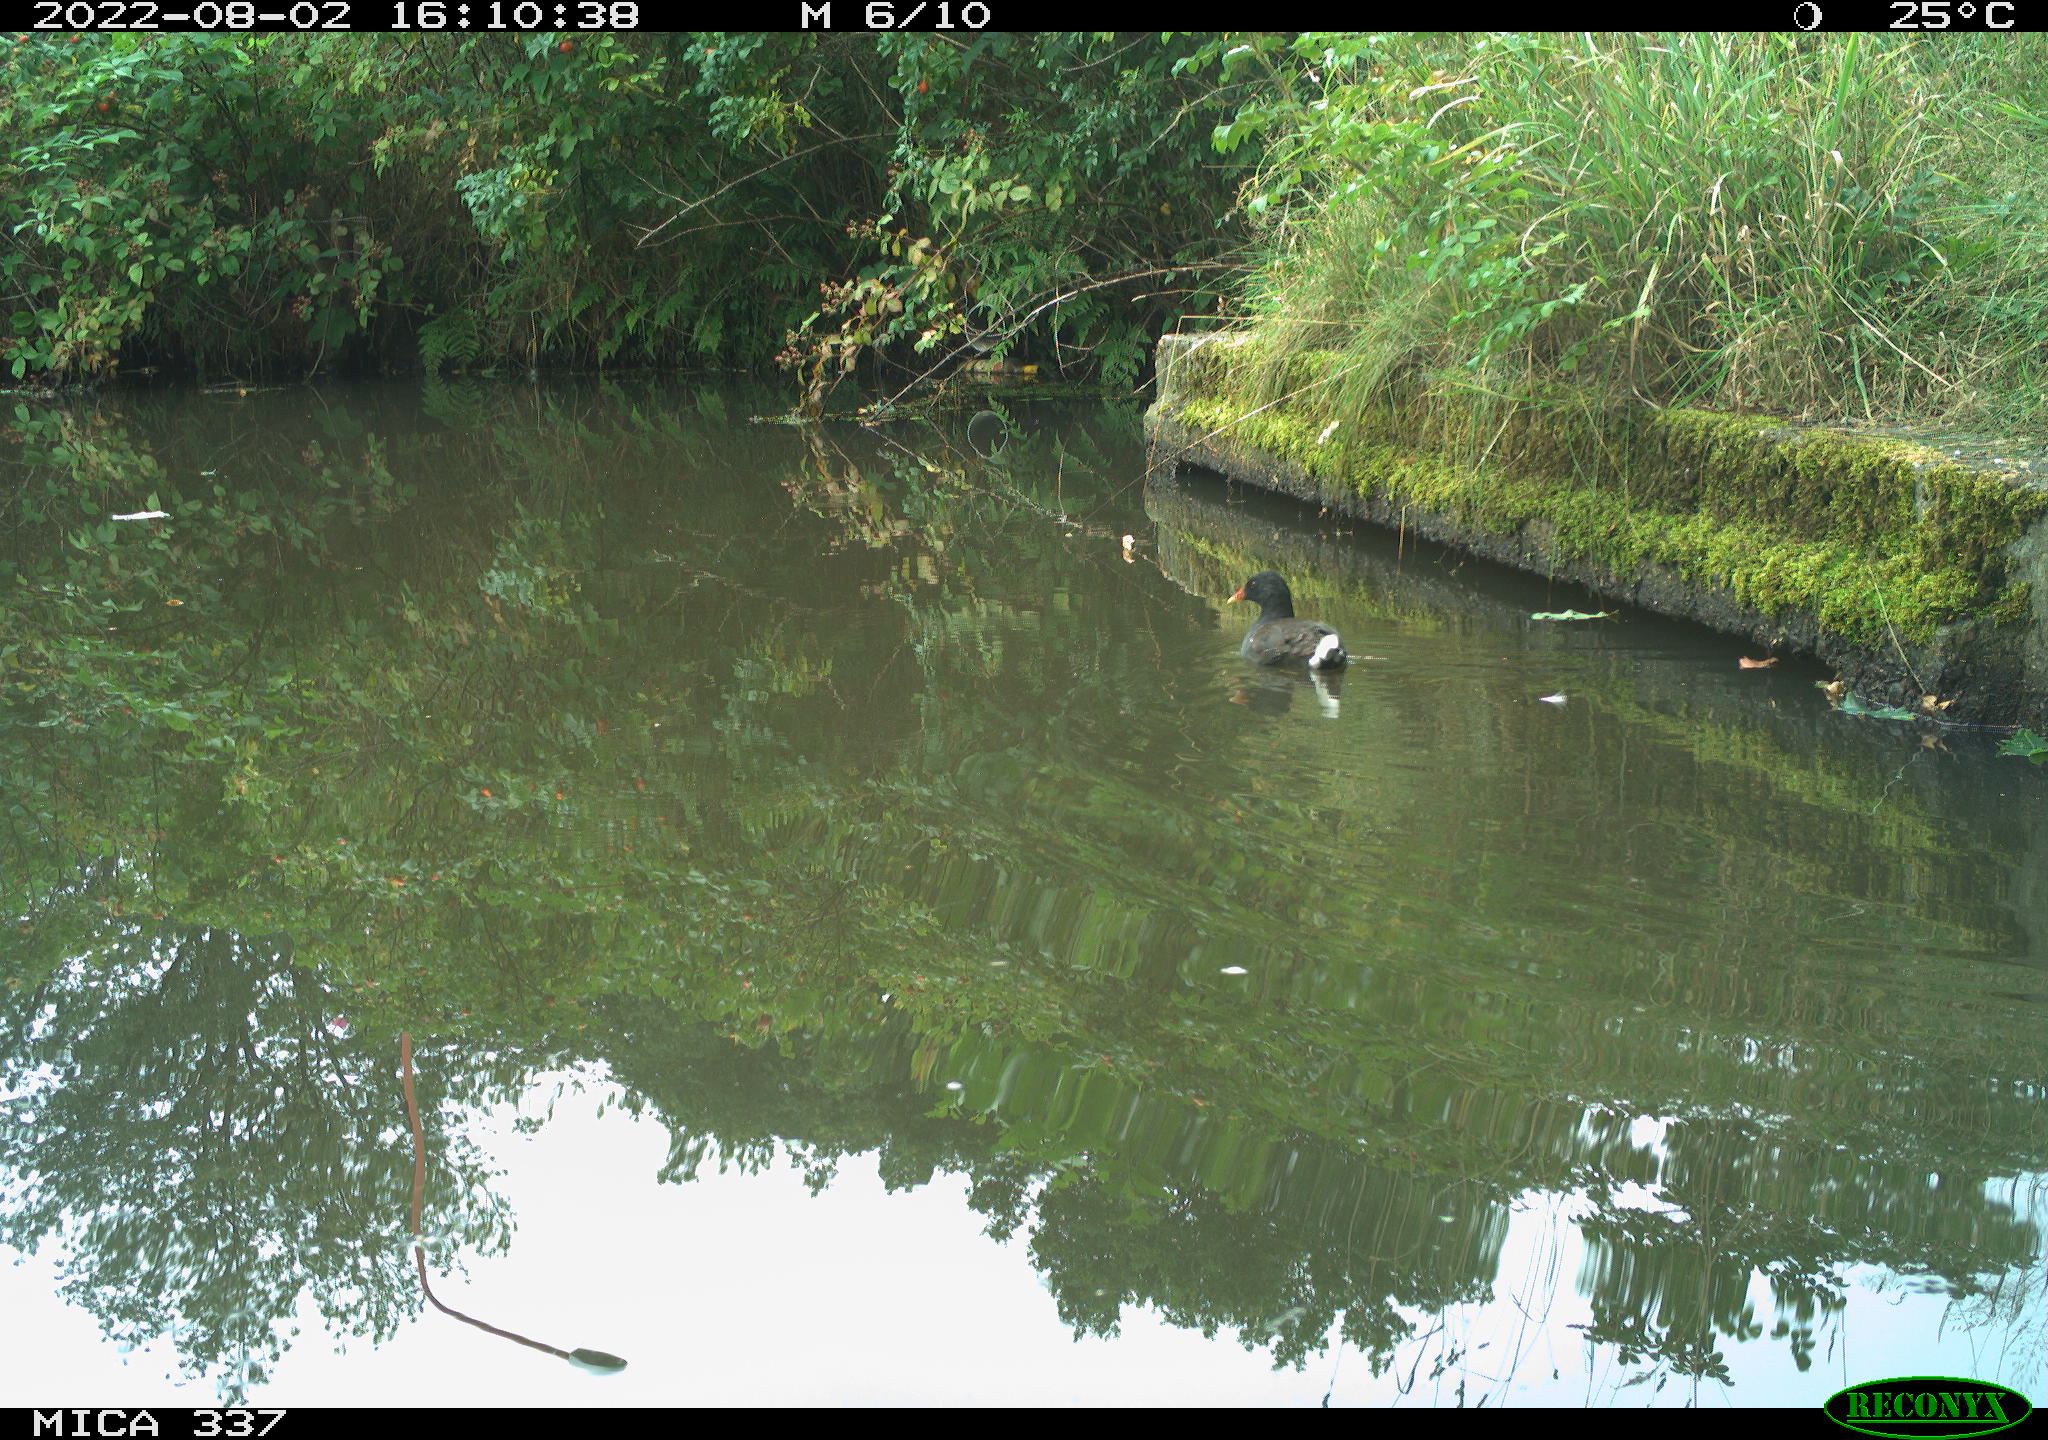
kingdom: Animalia
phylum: Chordata
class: Aves
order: Gruiformes
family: Rallidae
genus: Gallinula
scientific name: Gallinula chloropus
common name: Common moorhen
